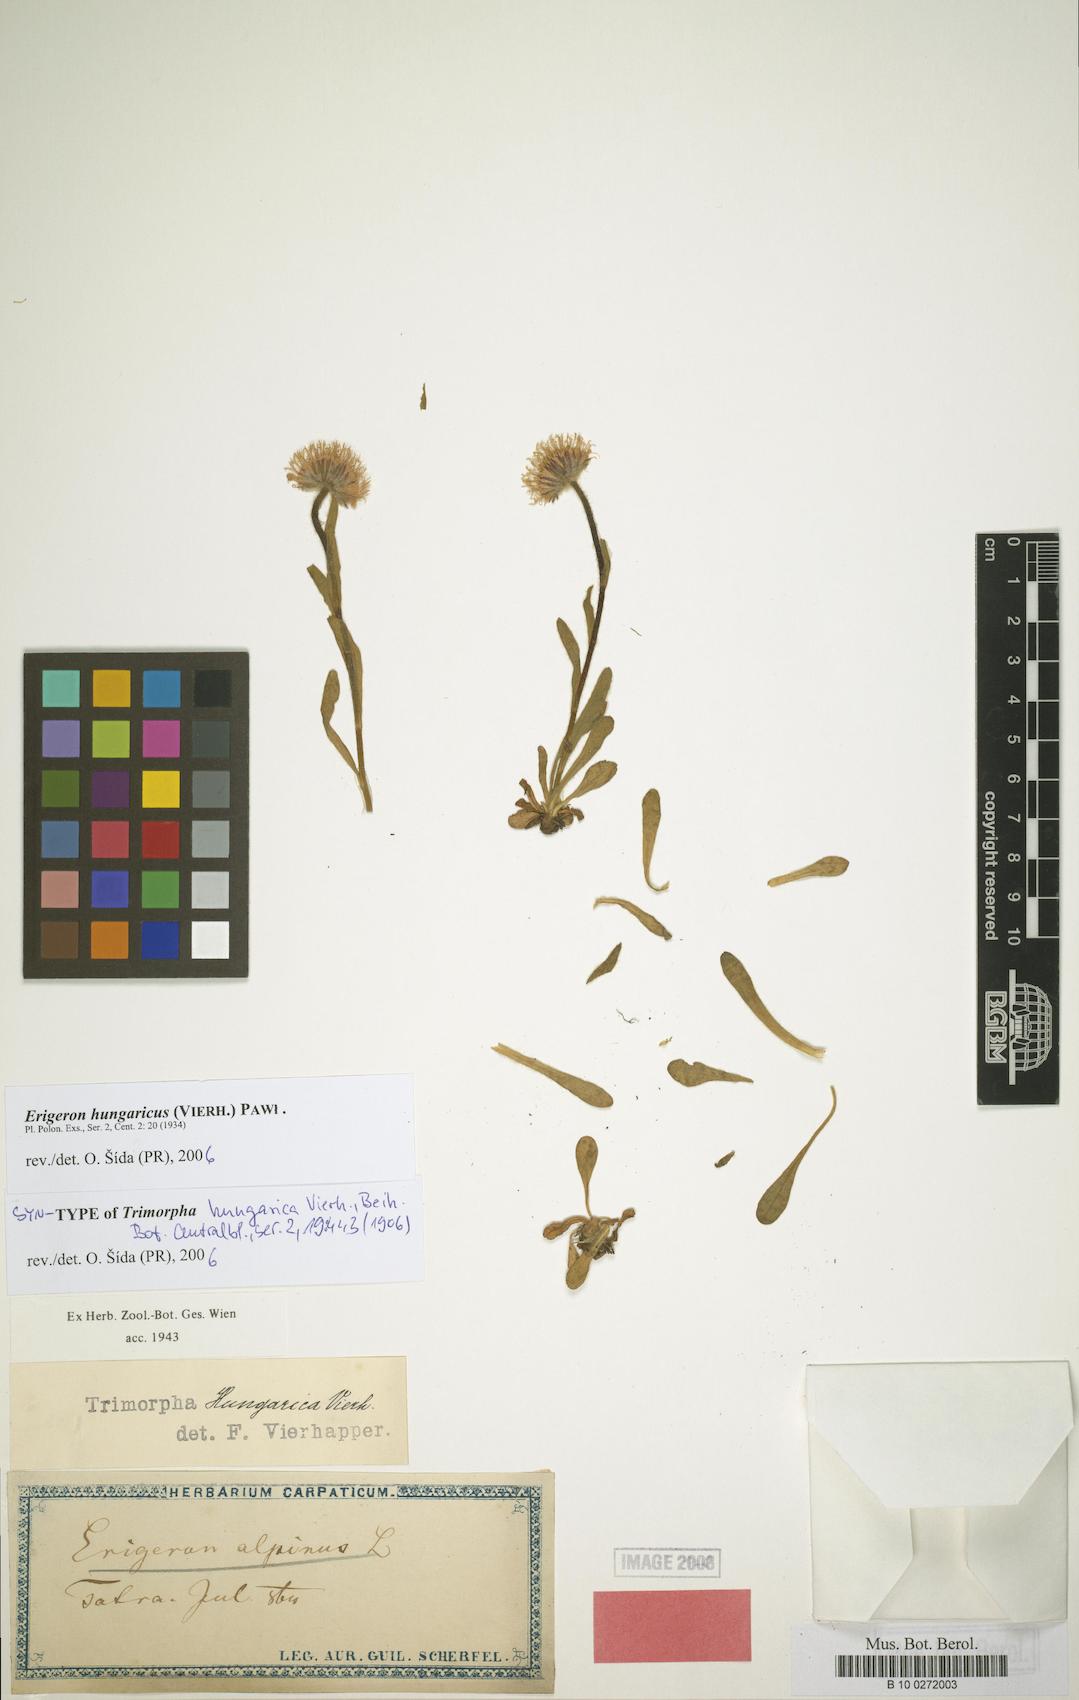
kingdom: Plantae
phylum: Tracheophyta
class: Magnoliopsida
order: Asterales
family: Asteraceae
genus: Erigeron
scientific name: Erigeron hungaricus
